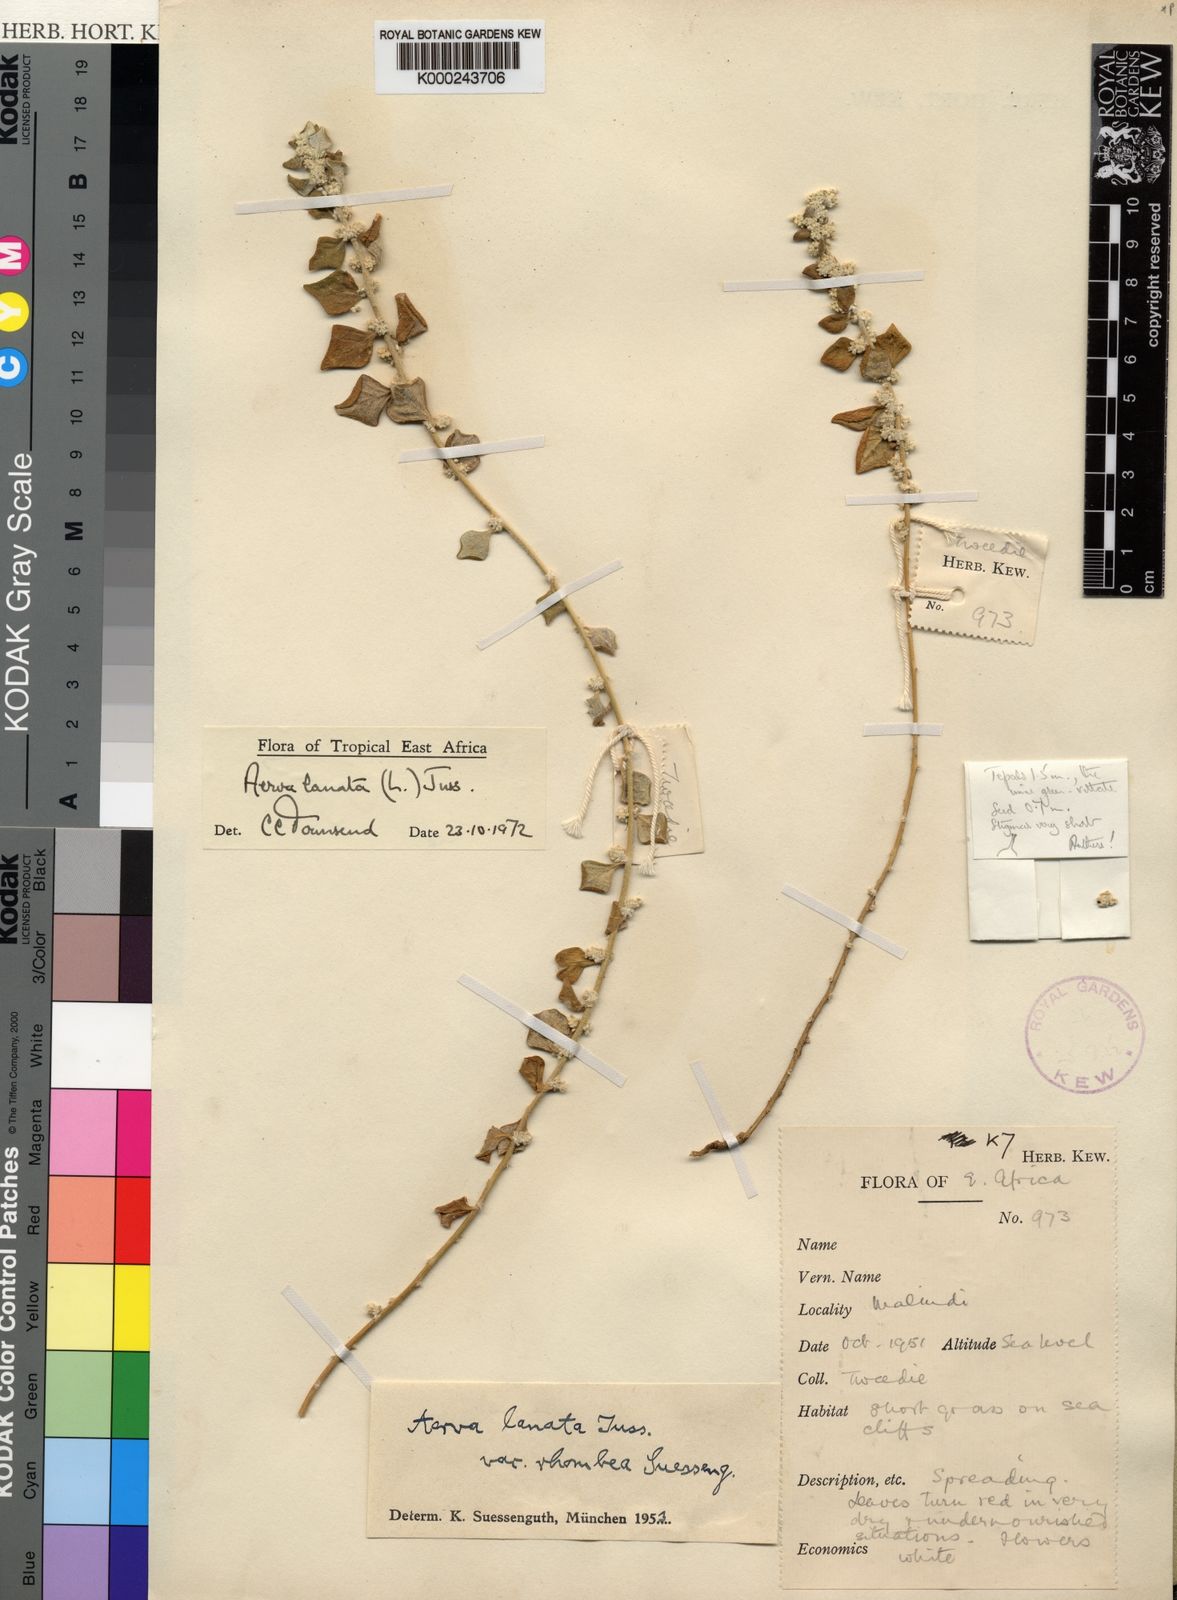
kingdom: Plantae
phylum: Tracheophyta
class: Magnoliopsida
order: Caryophyllales
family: Amaranthaceae
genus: Ouret
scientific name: Ouret lanata
